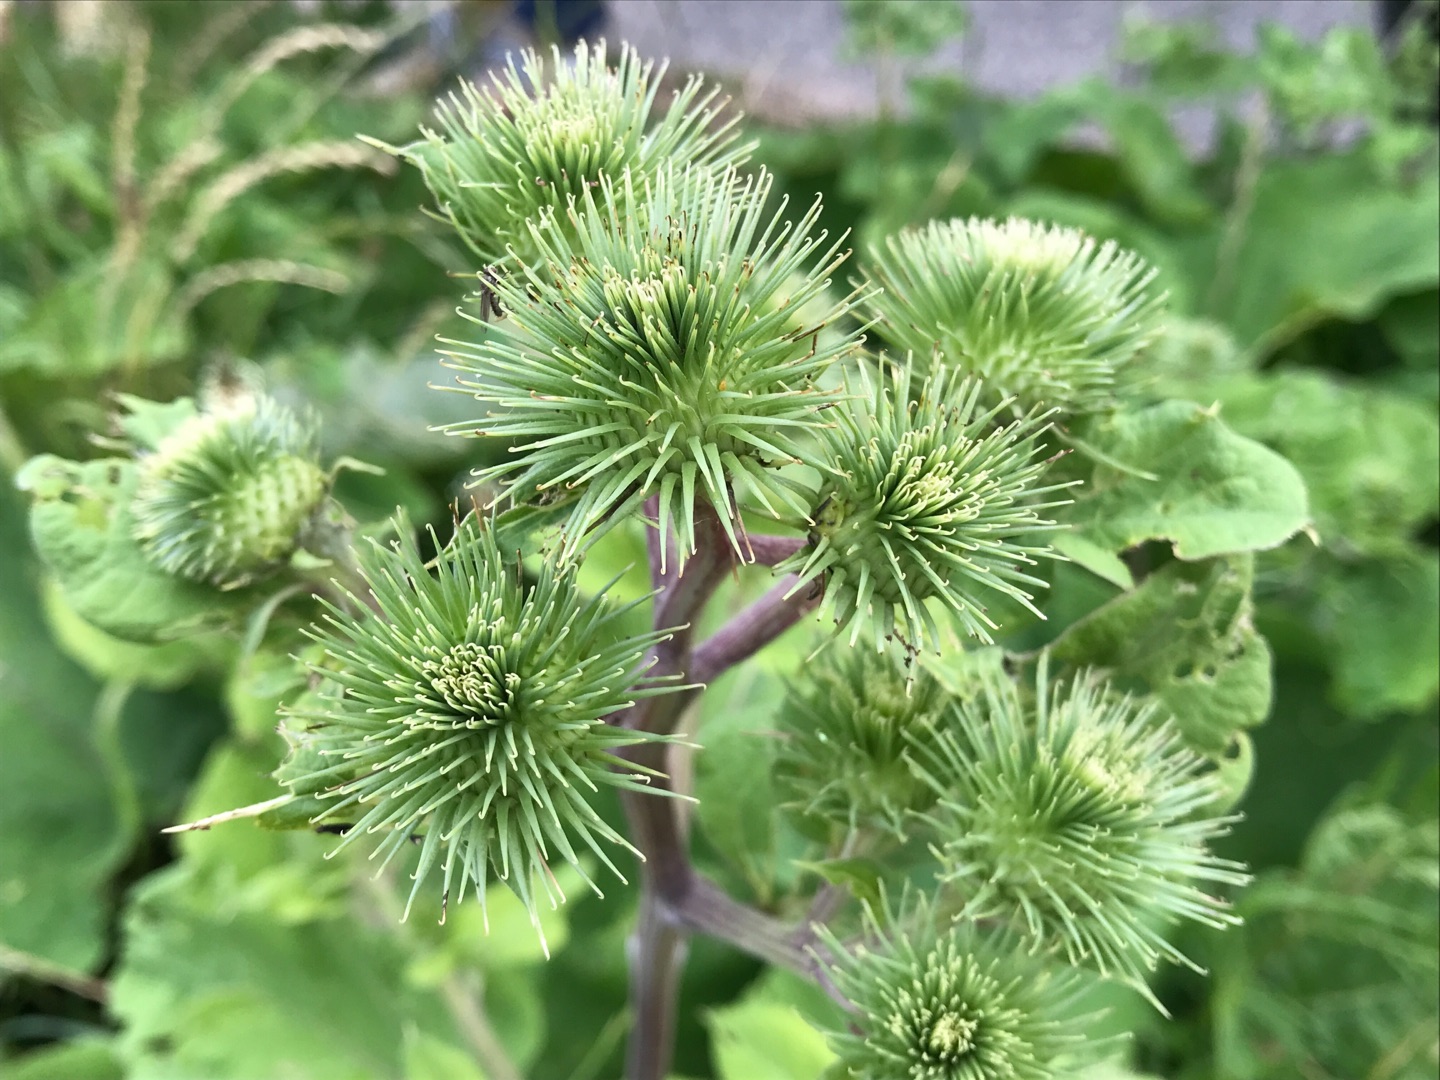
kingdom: Plantae
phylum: Tracheophyta
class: Magnoliopsida
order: Asterales
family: Asteraceae
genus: Arctium
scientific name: Arctium lappa
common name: Glat burre
